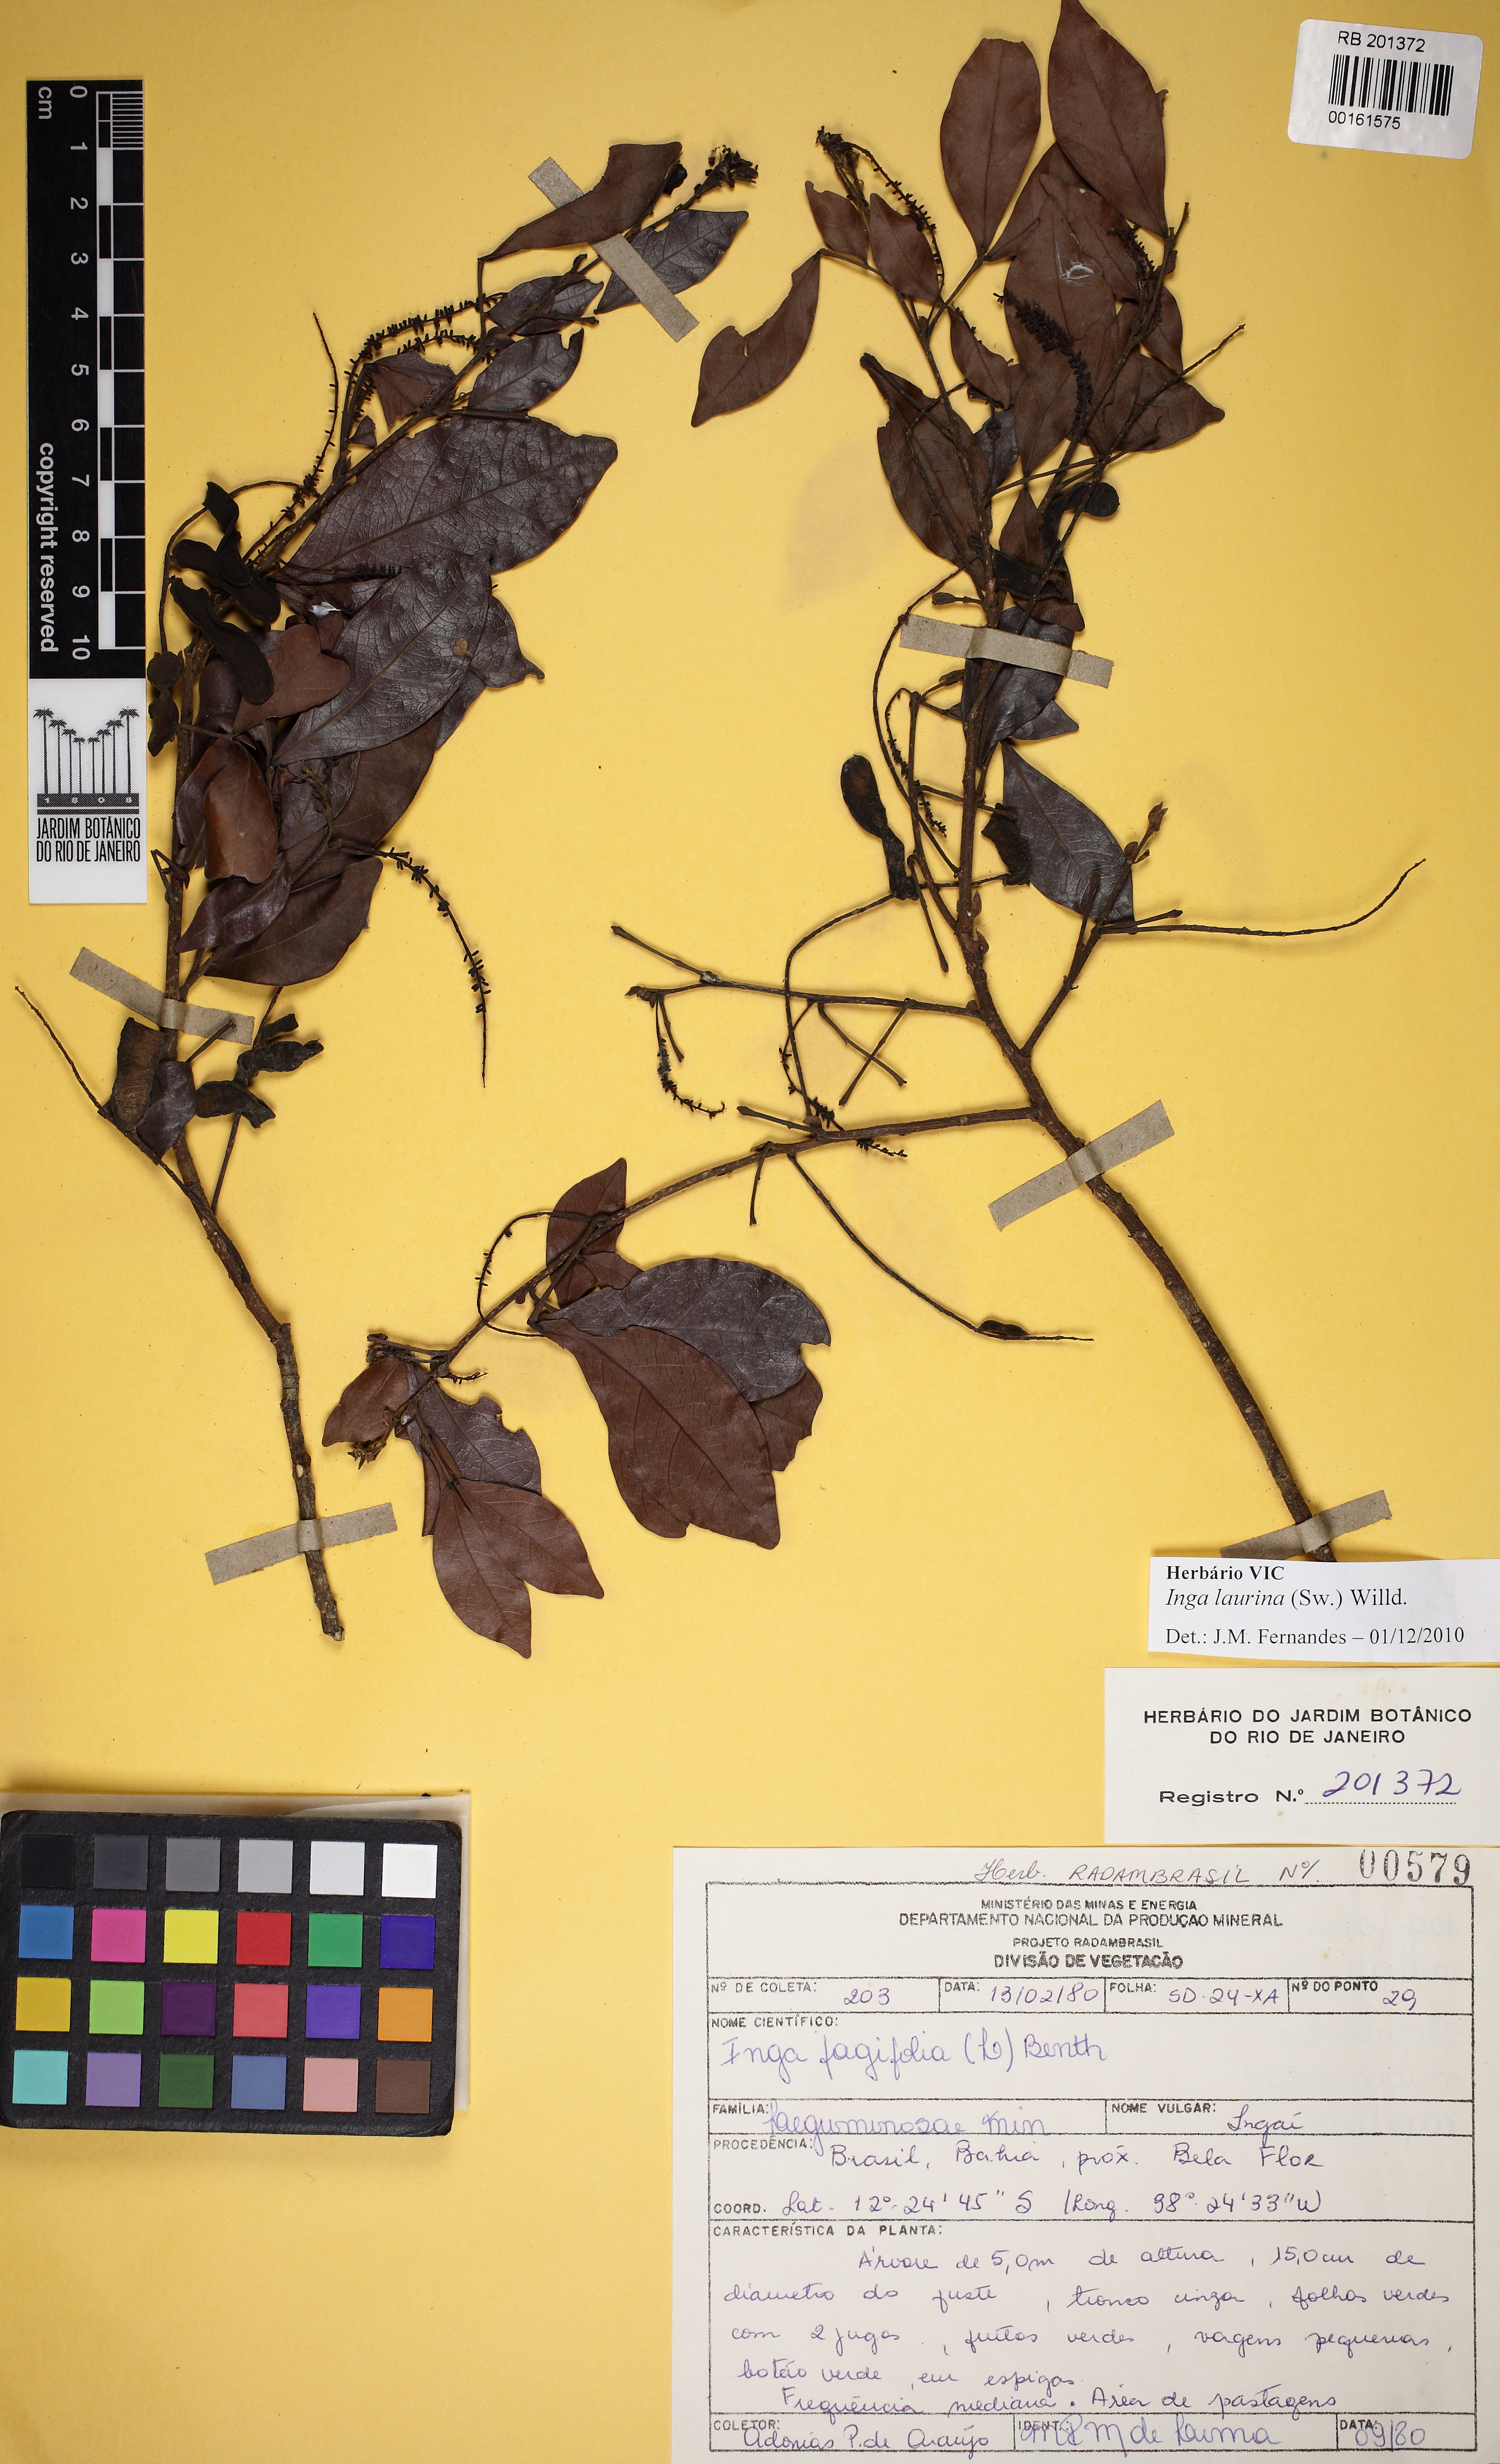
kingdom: Plantae
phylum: Tracheophyta
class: Magnoliopsida
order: Fabales
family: Fabaceae
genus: Inga
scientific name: Inga laurina
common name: Red wood
